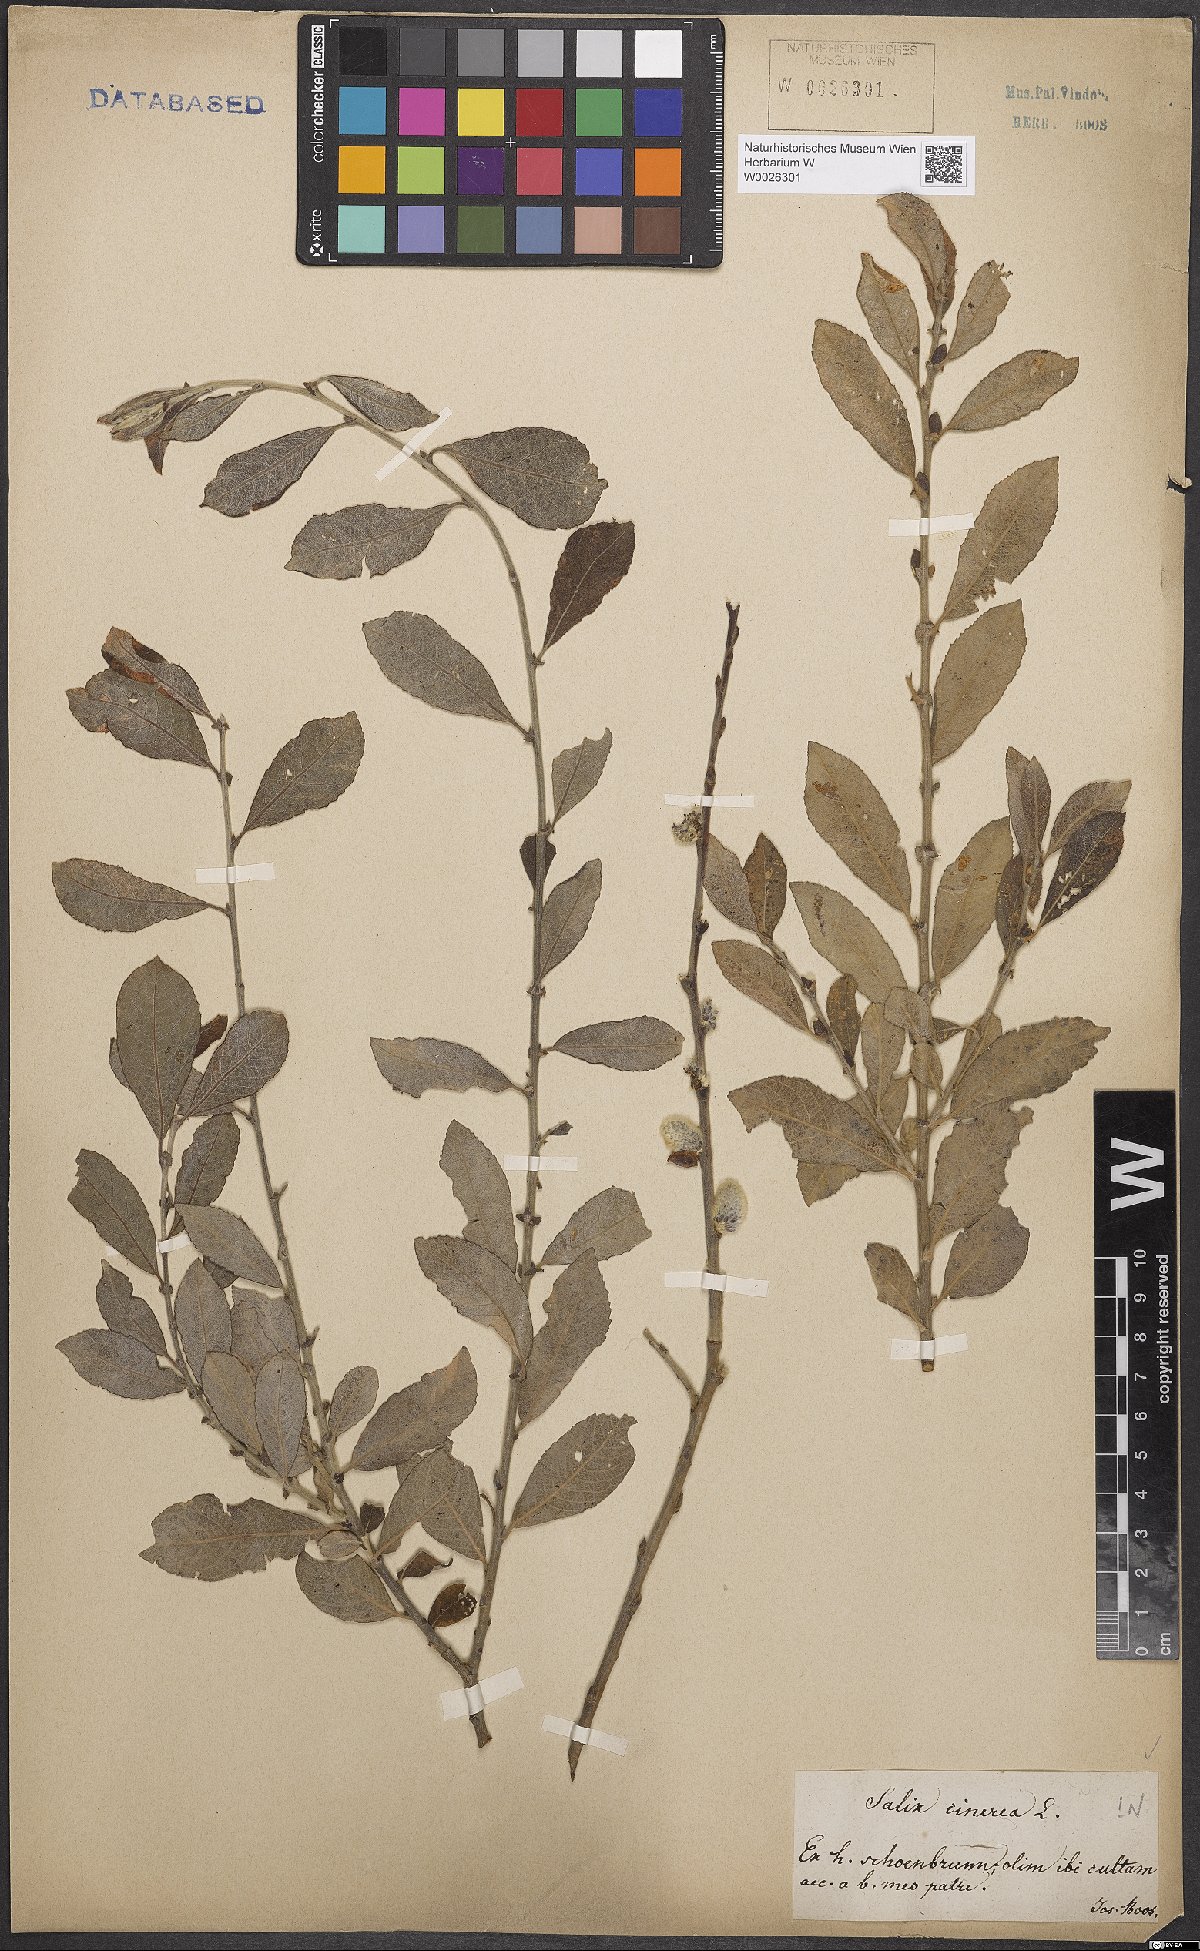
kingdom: Plantae
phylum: Tracheophyta
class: Magnoliopsida
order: Malpighiales
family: Salicaceae
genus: Salix
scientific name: Salix cinerea
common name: Common sallow
